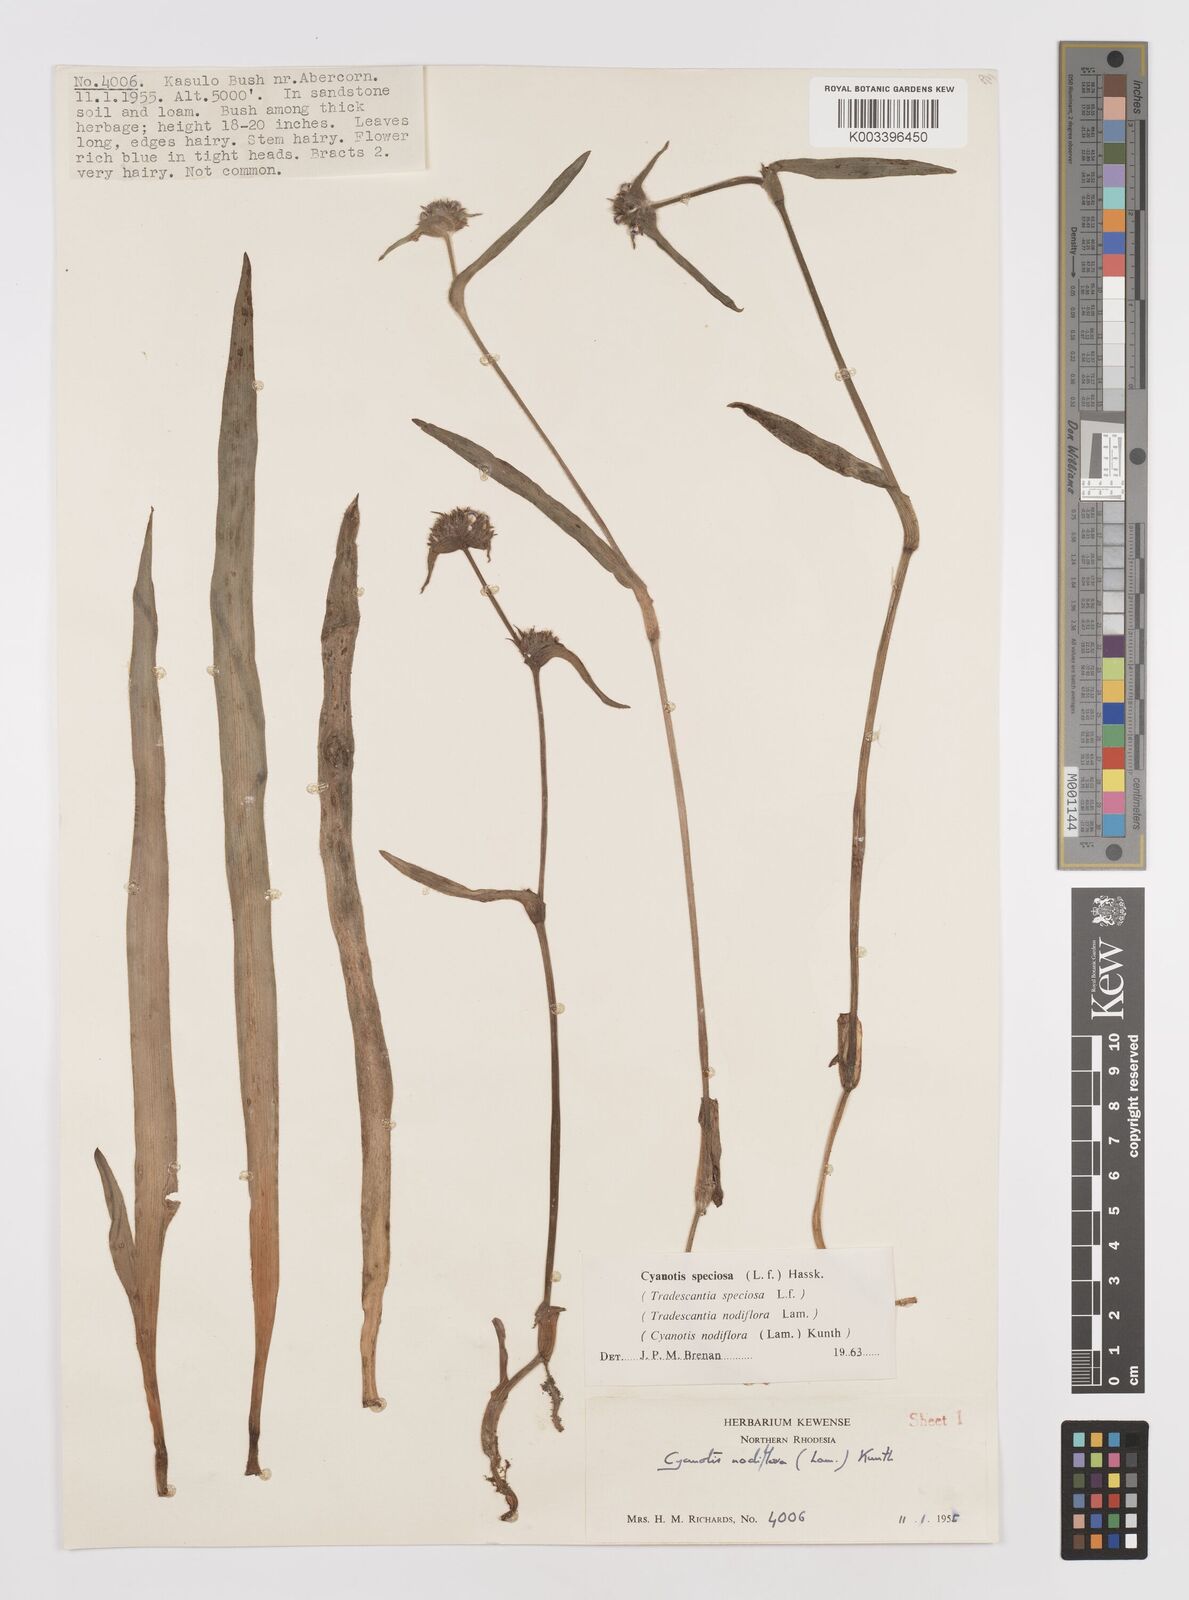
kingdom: Plantae
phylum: Tracheophyta
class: Liliopsida
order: Commelinales
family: Commelinaceae
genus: Cyanotis
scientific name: Cyanotis speciosa
